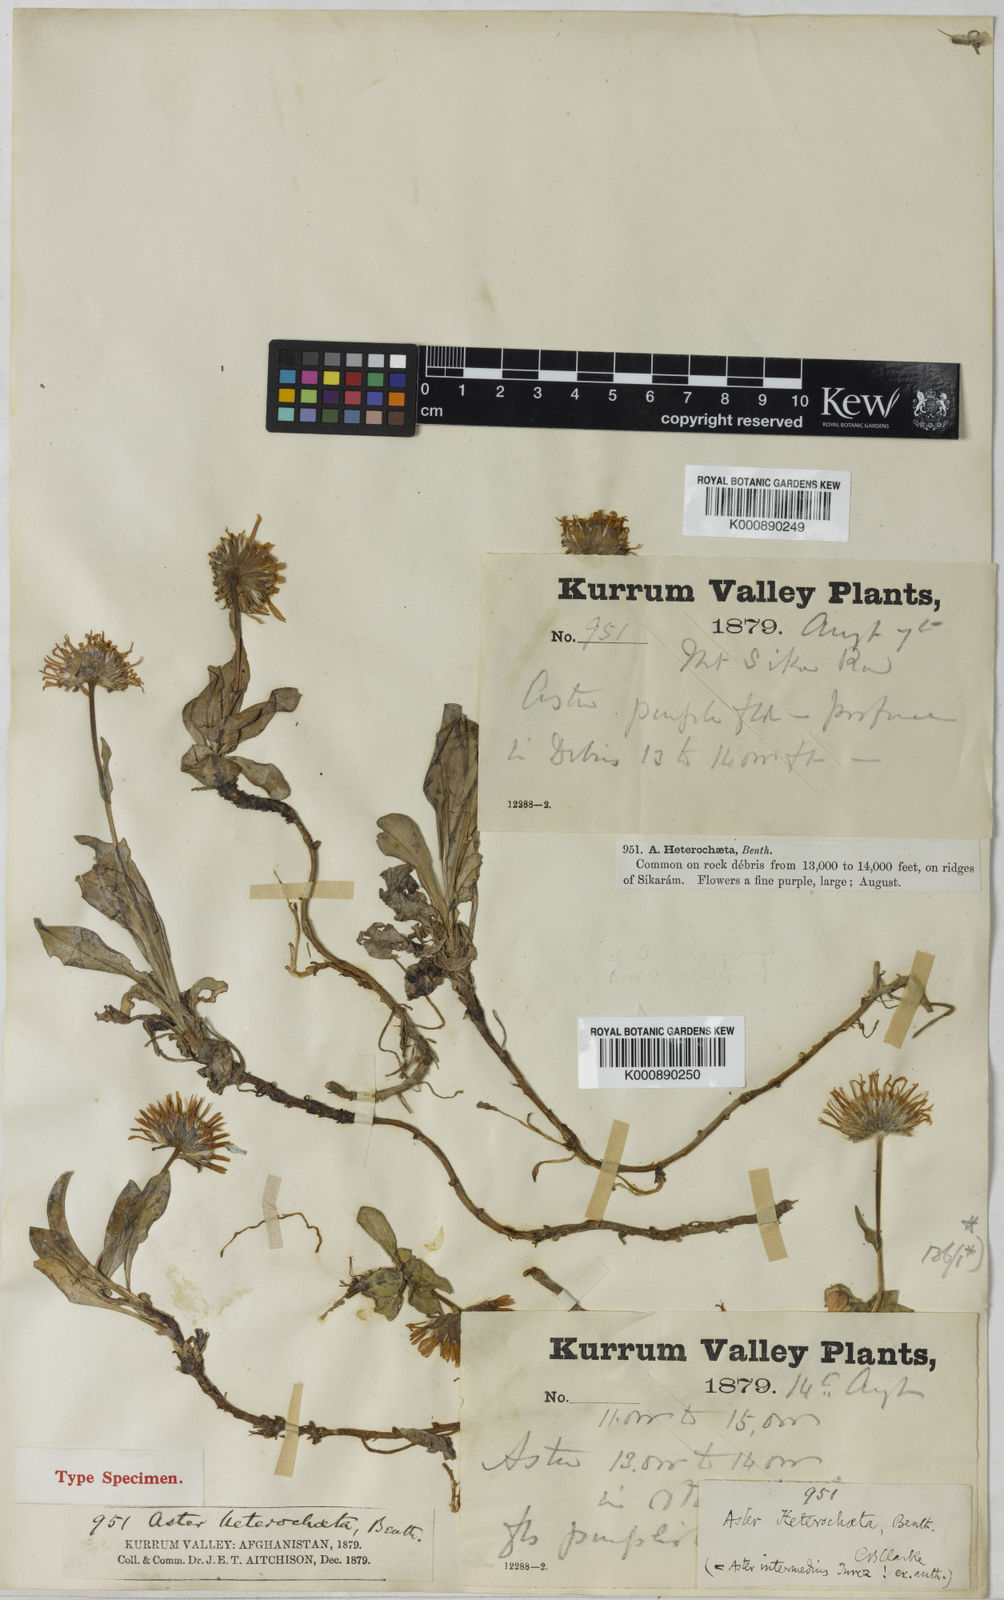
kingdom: Plantae
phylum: Tracheophyta
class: Magnoliopsida
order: Asterales
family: Asteraceae
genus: Aster
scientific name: Aster
